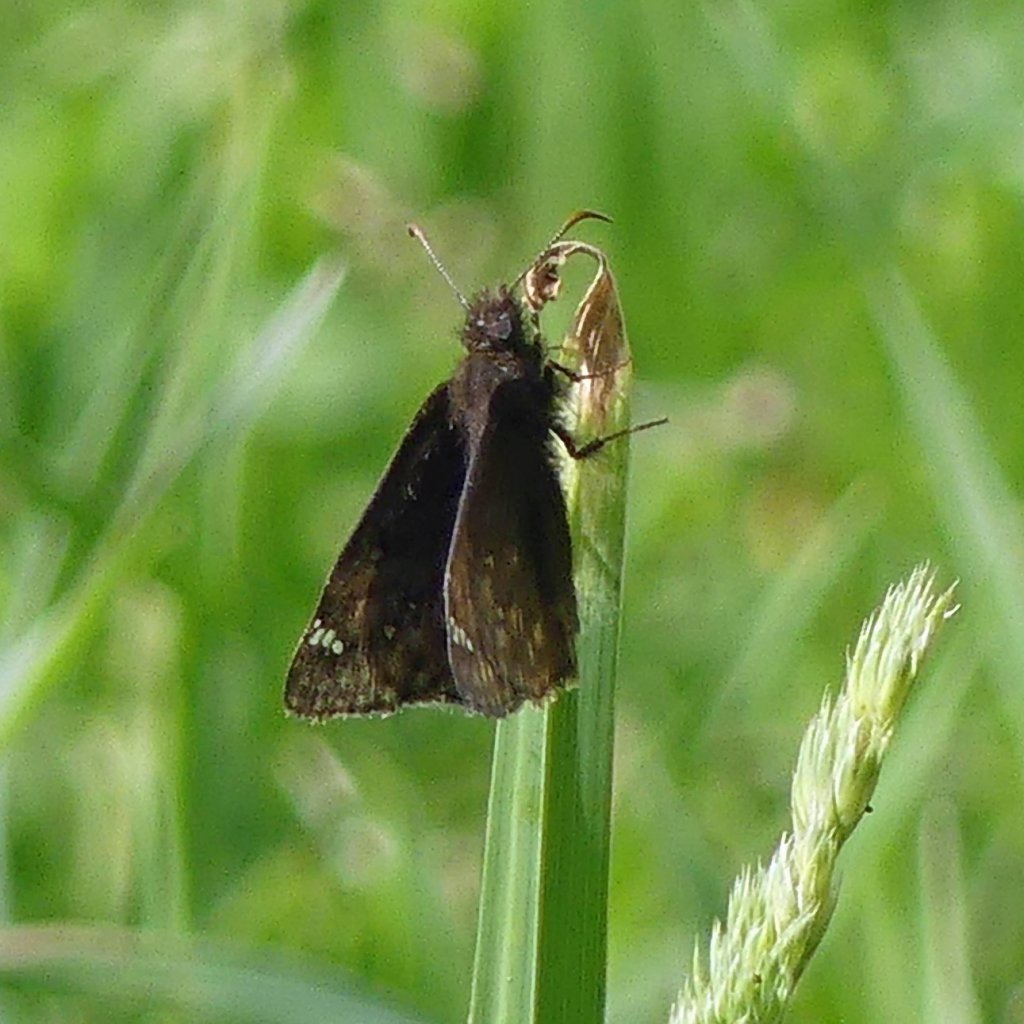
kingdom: Animalia
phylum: Arthropoda
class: Insecta
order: Lepidoptera
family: Hesperiidae
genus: Gesta
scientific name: Gesta
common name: Wild Indigo Duskywing
